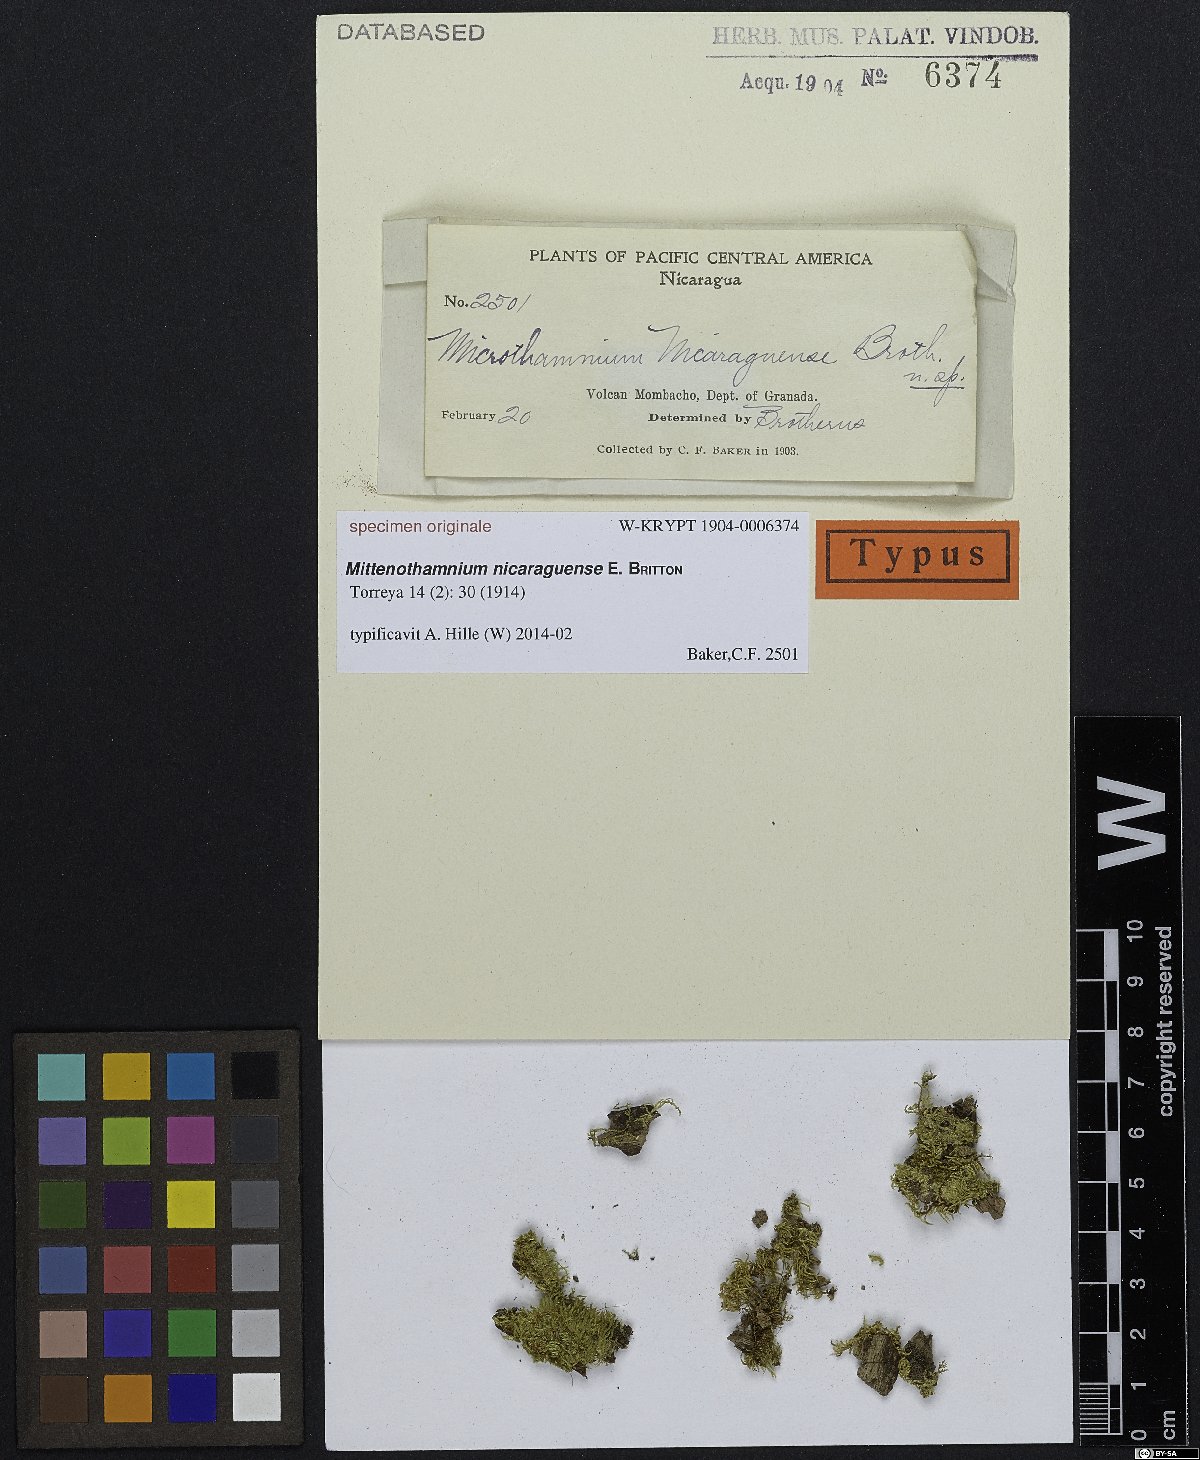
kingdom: Plantae
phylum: Bryophyta
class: Bryopsida
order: Hypnales
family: Hypnaceae
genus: Mittenothamnium
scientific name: Mittenothamnium
